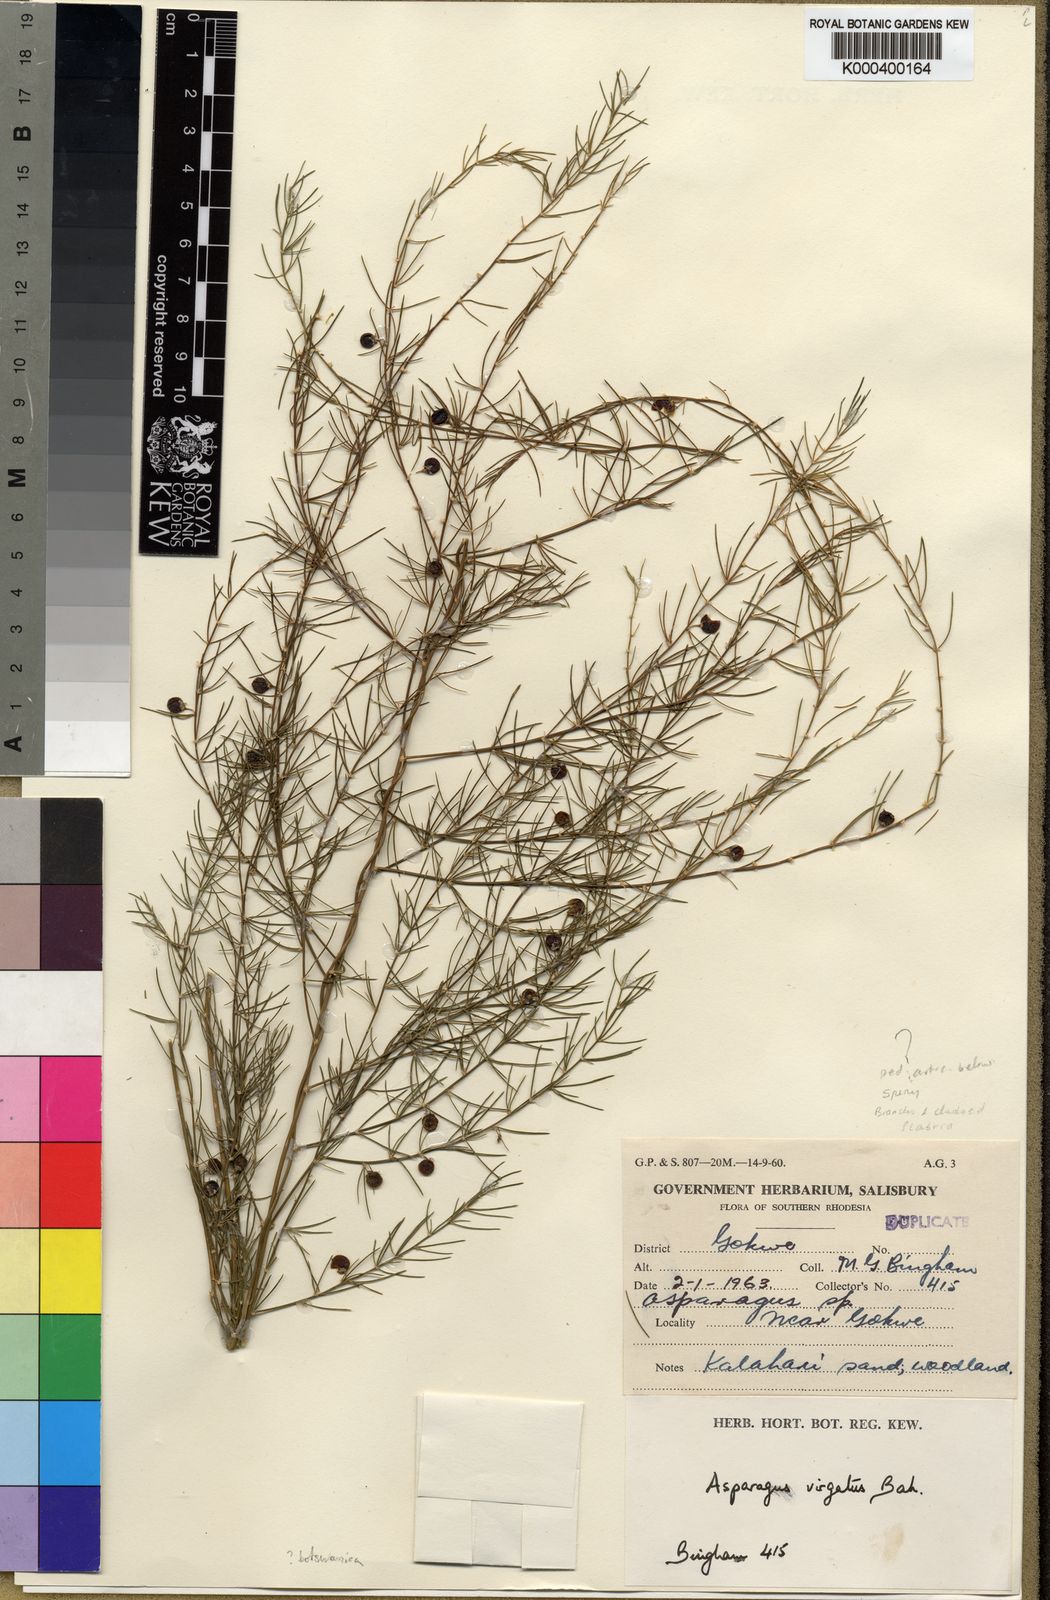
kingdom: Plantae
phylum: Tracheophyta
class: Liliopsida
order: Asparagales
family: Asparagaceae
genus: Asparagus
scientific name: Asparagus botswanicus
